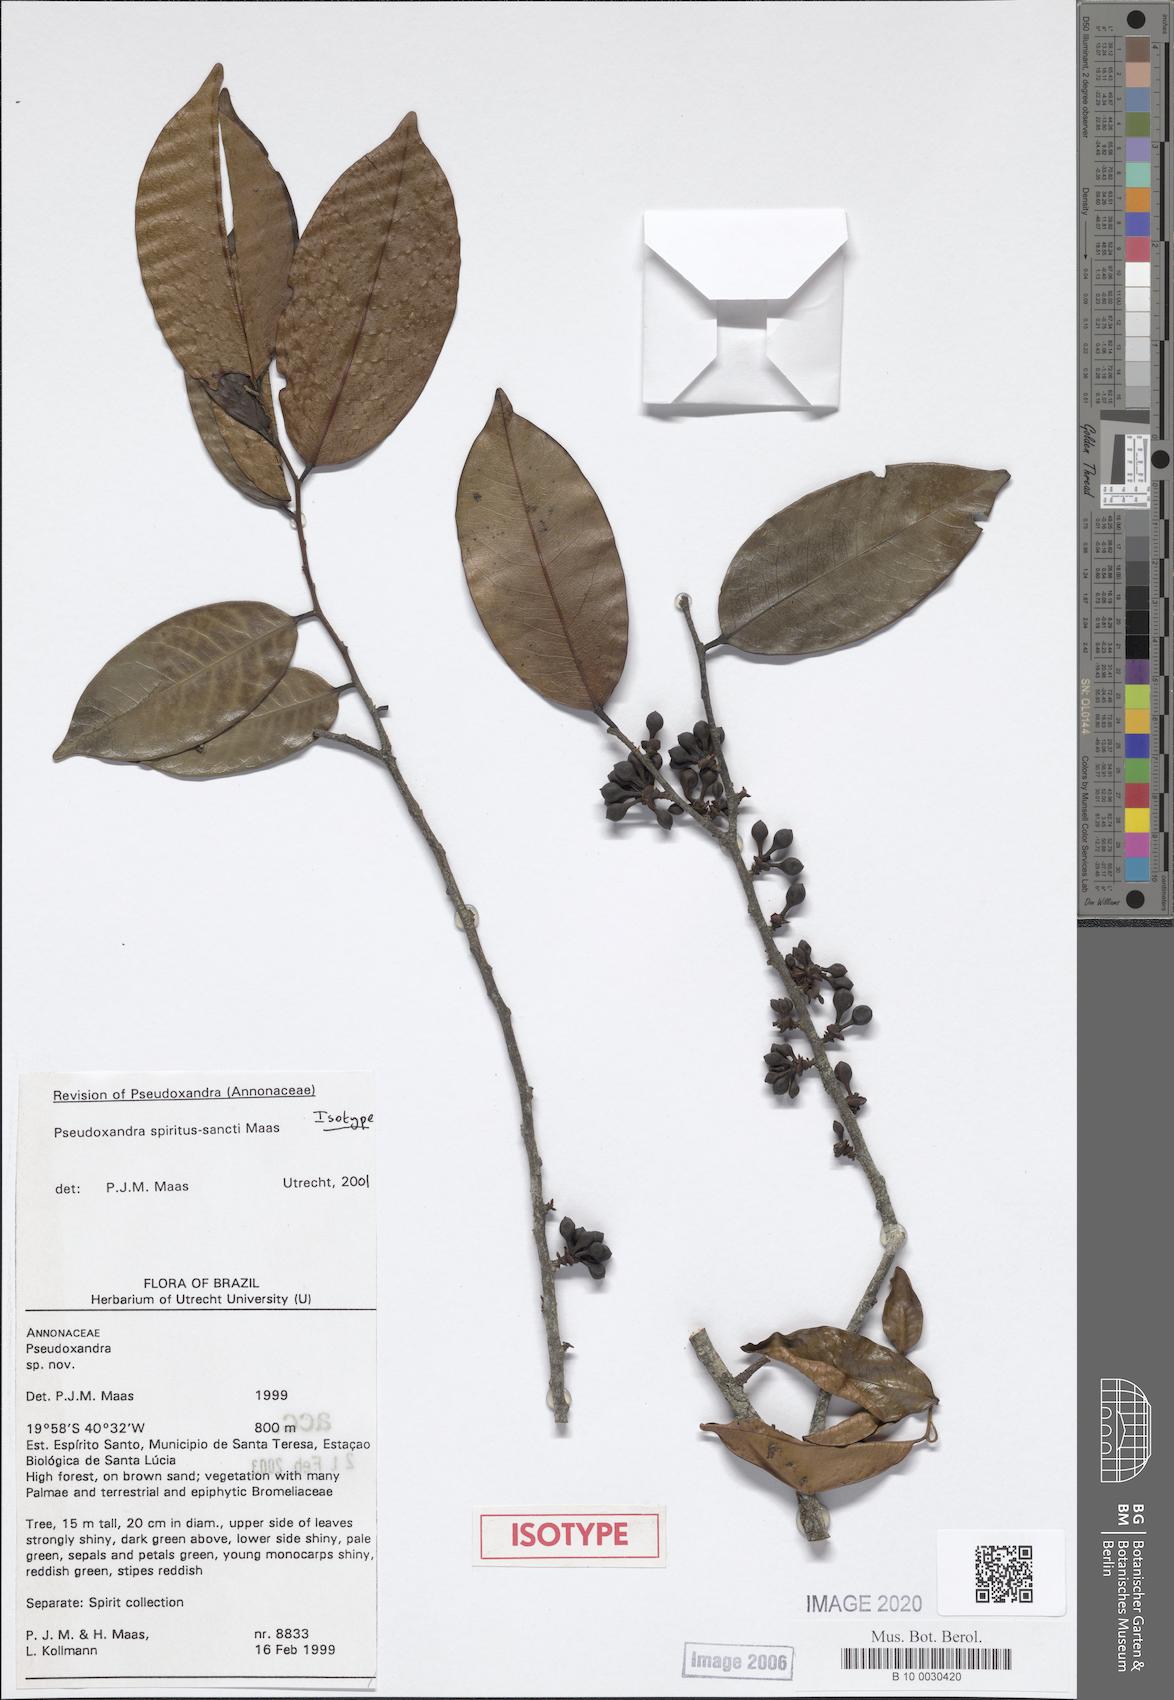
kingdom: Plantae
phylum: Tracheophyta
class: Magnoliopsida
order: Magnoliales
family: Annonaceae
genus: Pseudoxandra
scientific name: Pseudoxandra spiritus-sancti
